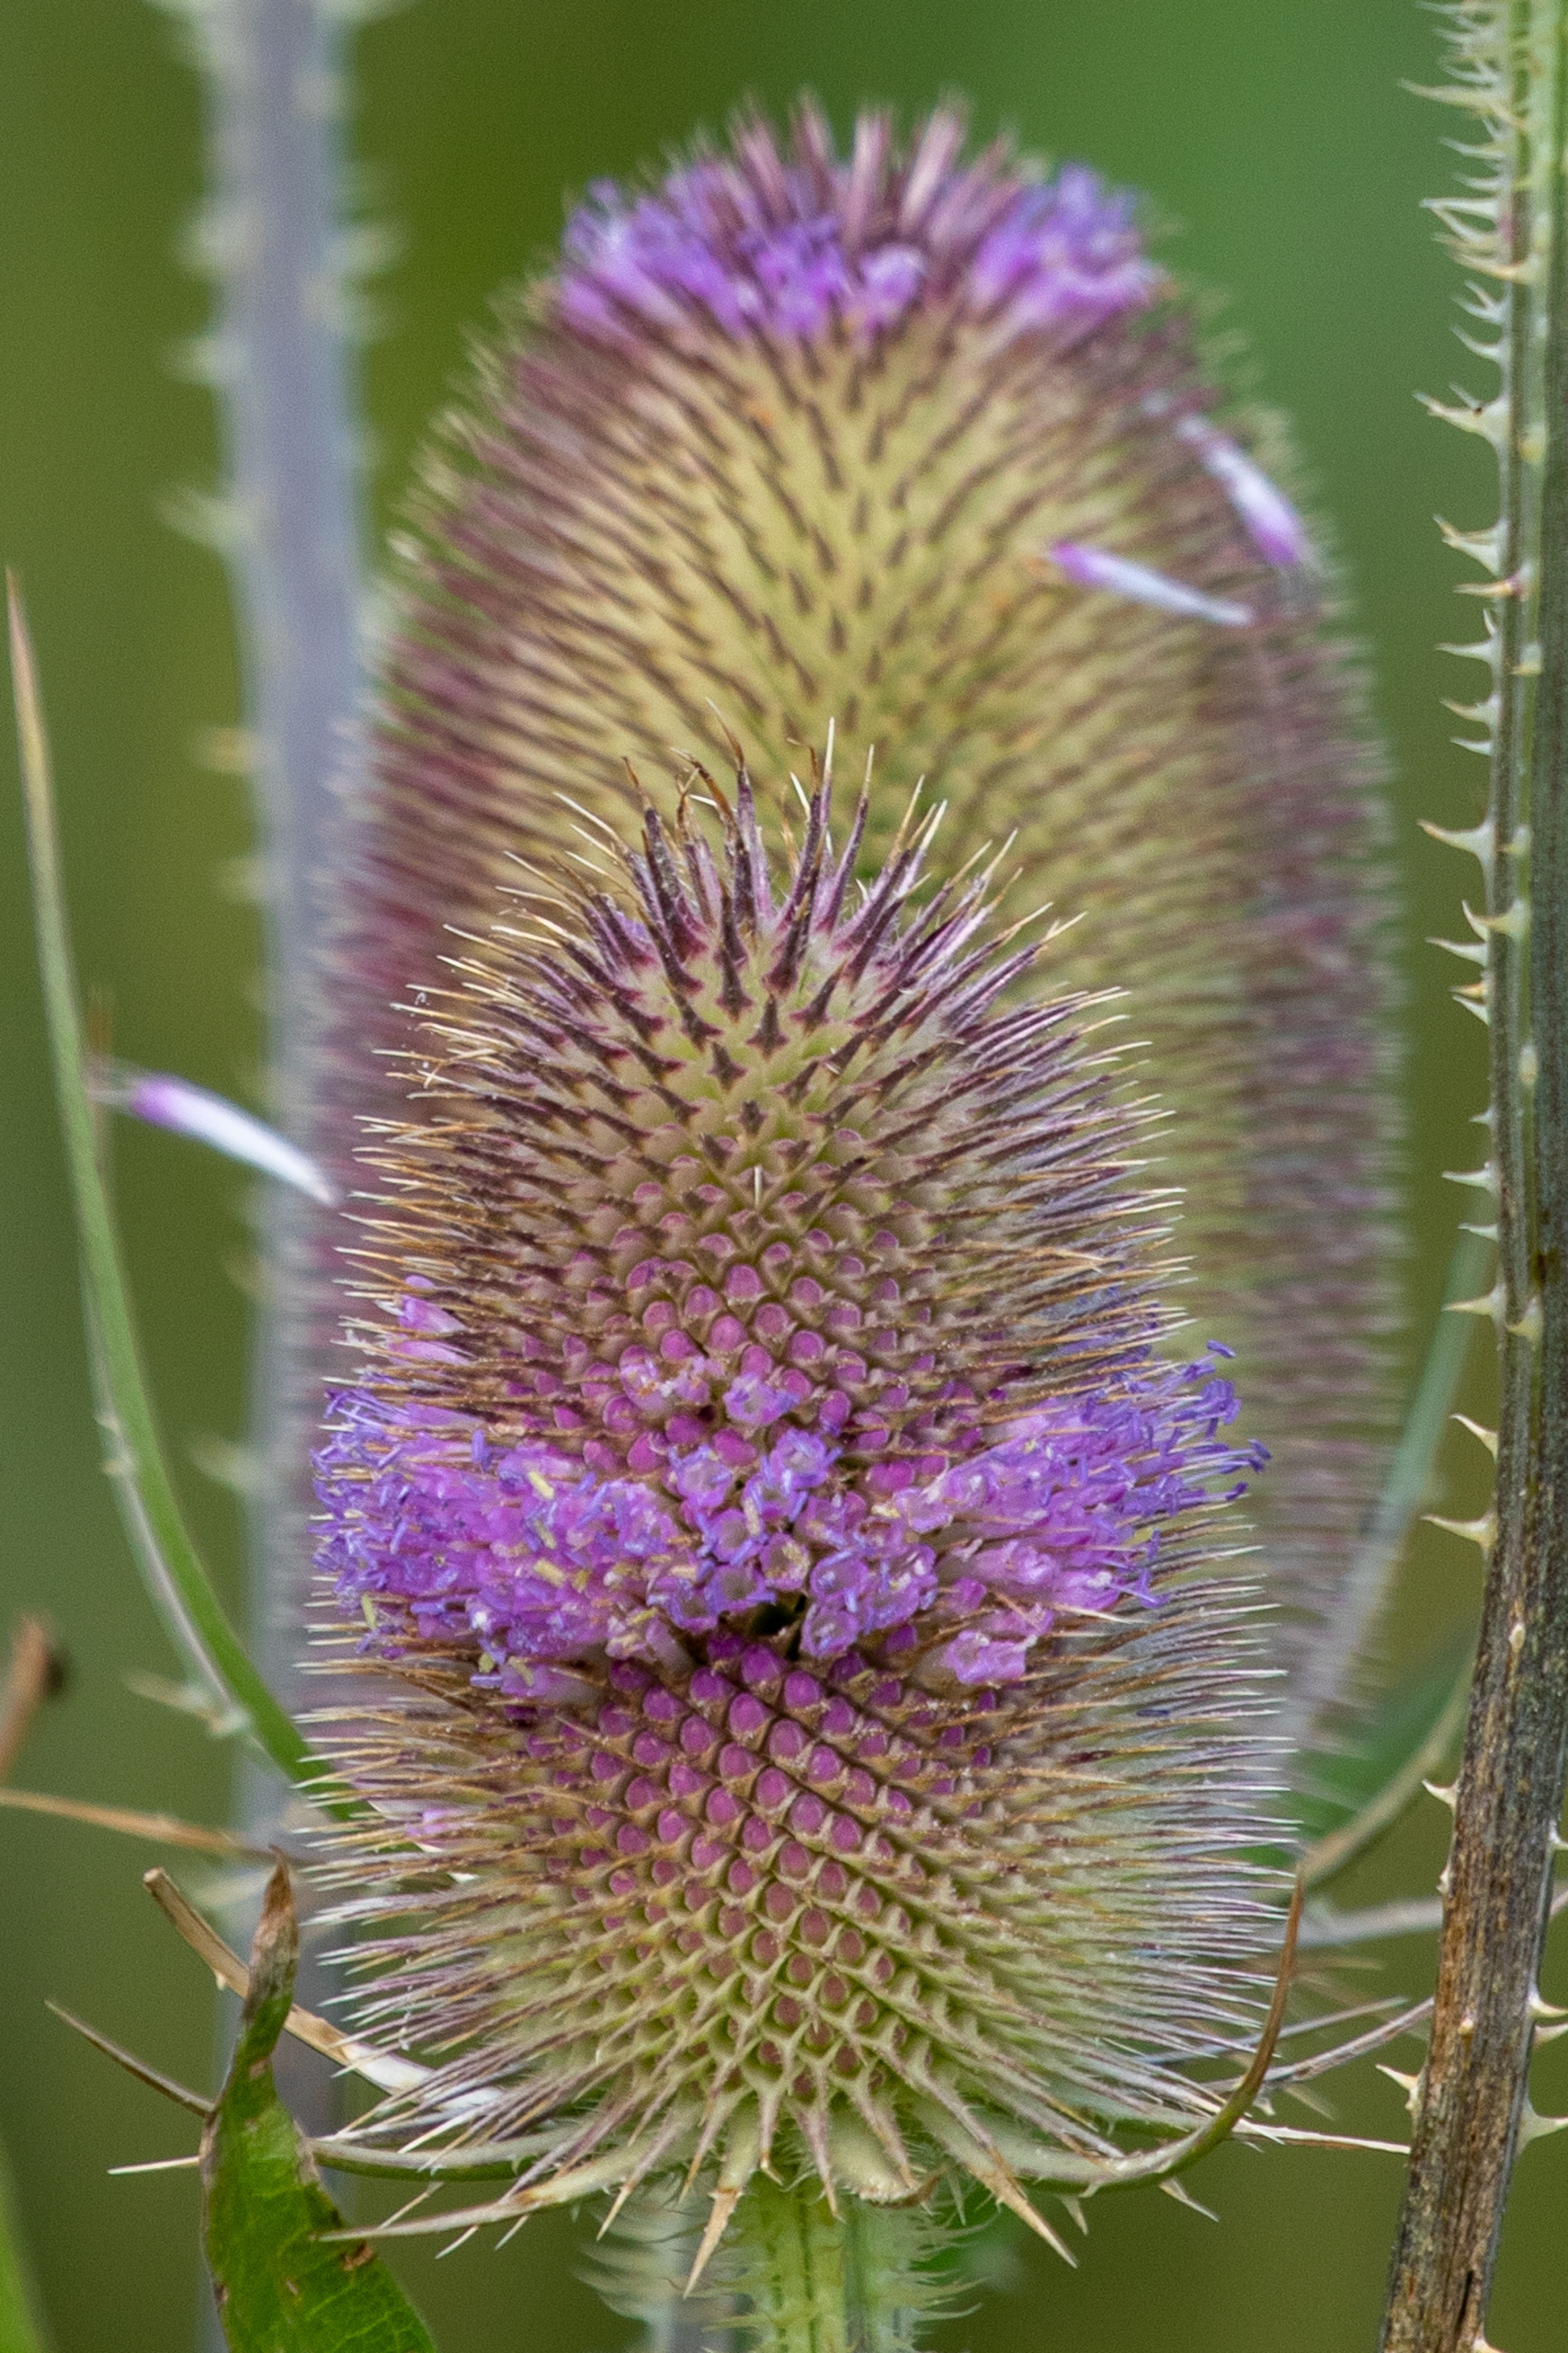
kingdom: Plantae
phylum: Tracheophyta
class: Magnoliopsida
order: Dipsacales
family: Caprifoliaceae
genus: Dipsacus
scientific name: Dipsacus fullonum
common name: Gærde-kartebolle
